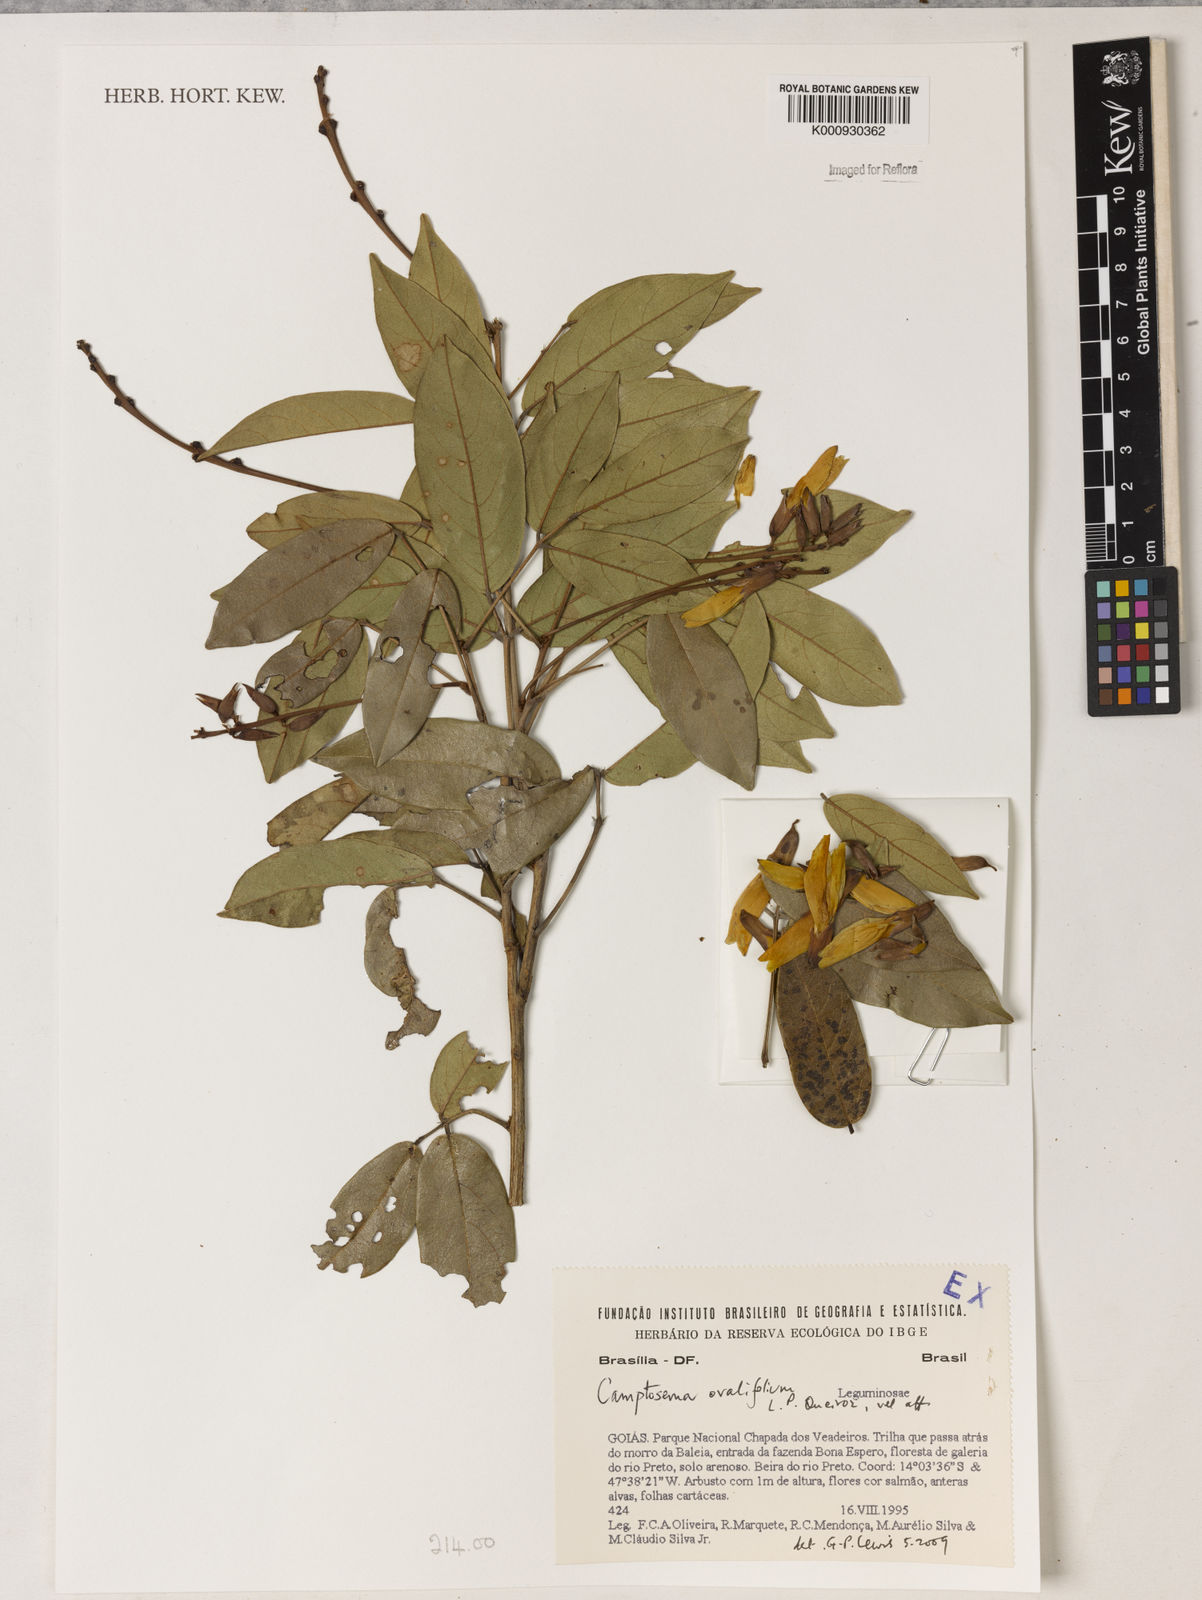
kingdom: Plantae
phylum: Tracheophyta
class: Magnoliopsida
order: Fabales
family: Fabaceae
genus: Camptosema
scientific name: Camptosema
